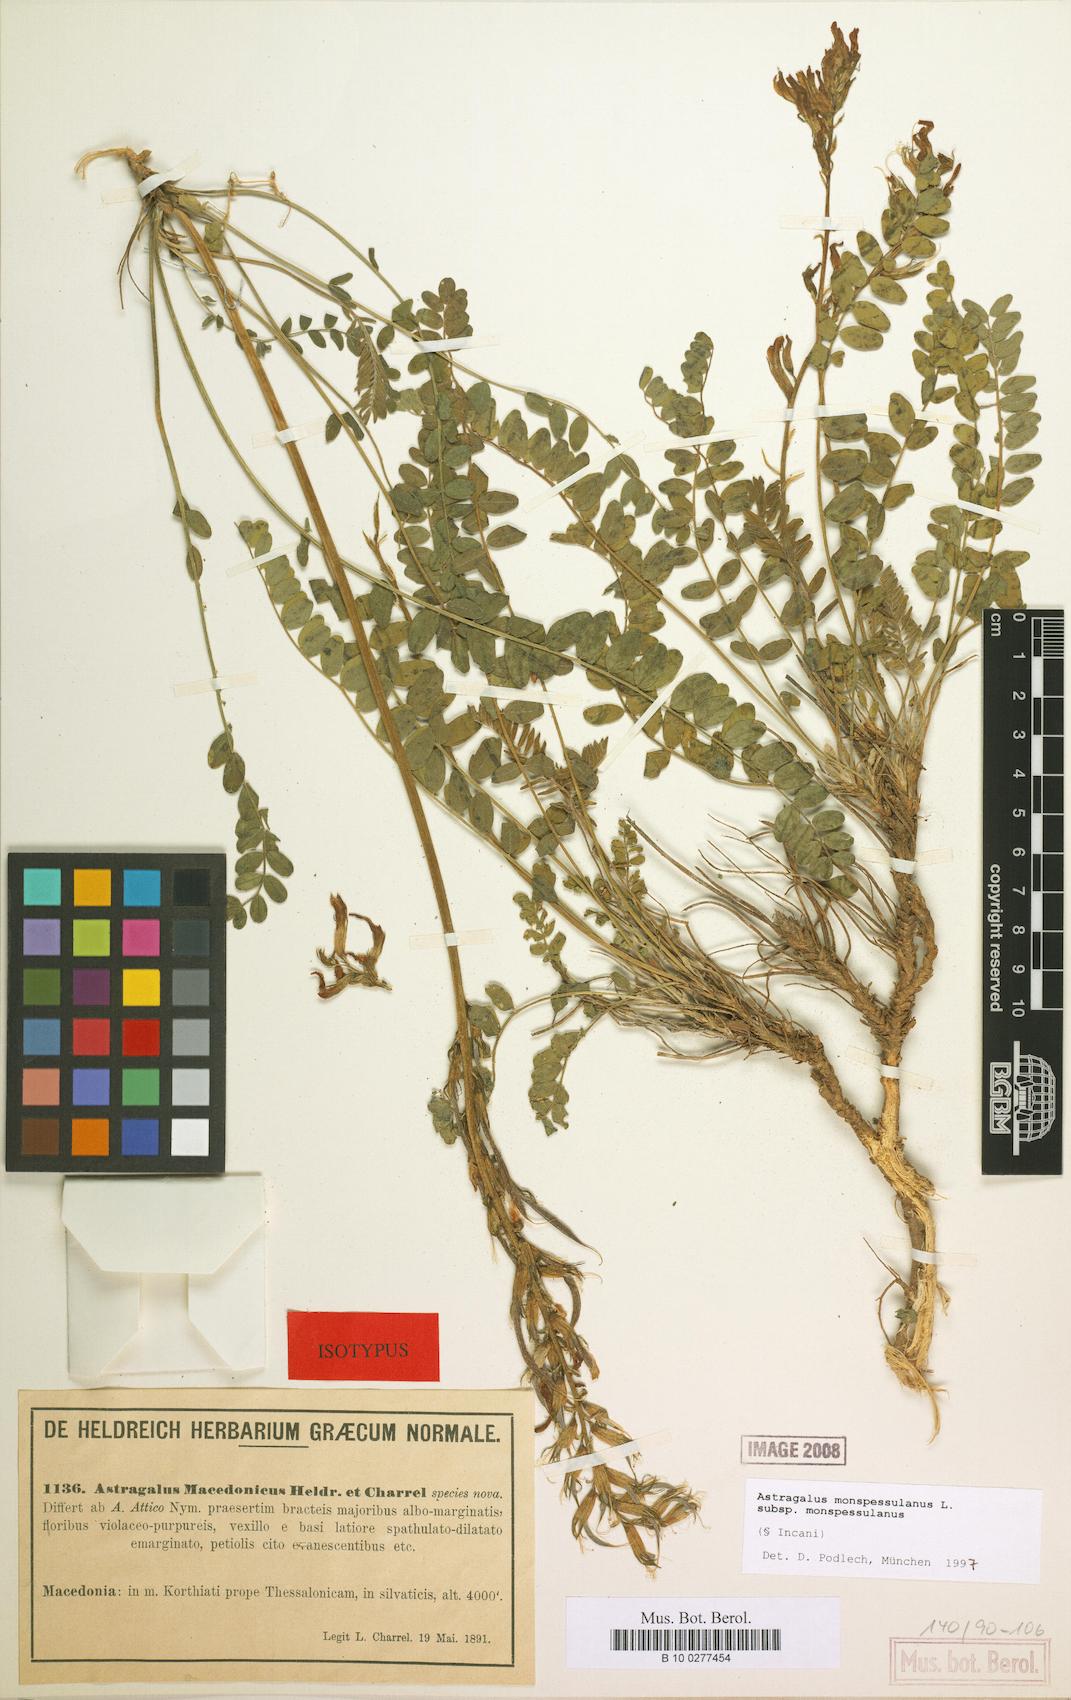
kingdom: Plantae
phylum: Tracheophyta
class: Magnoliopsida
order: Fabales
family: Fabaceae
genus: Astragalus
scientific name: Astragalus monspessulanus
